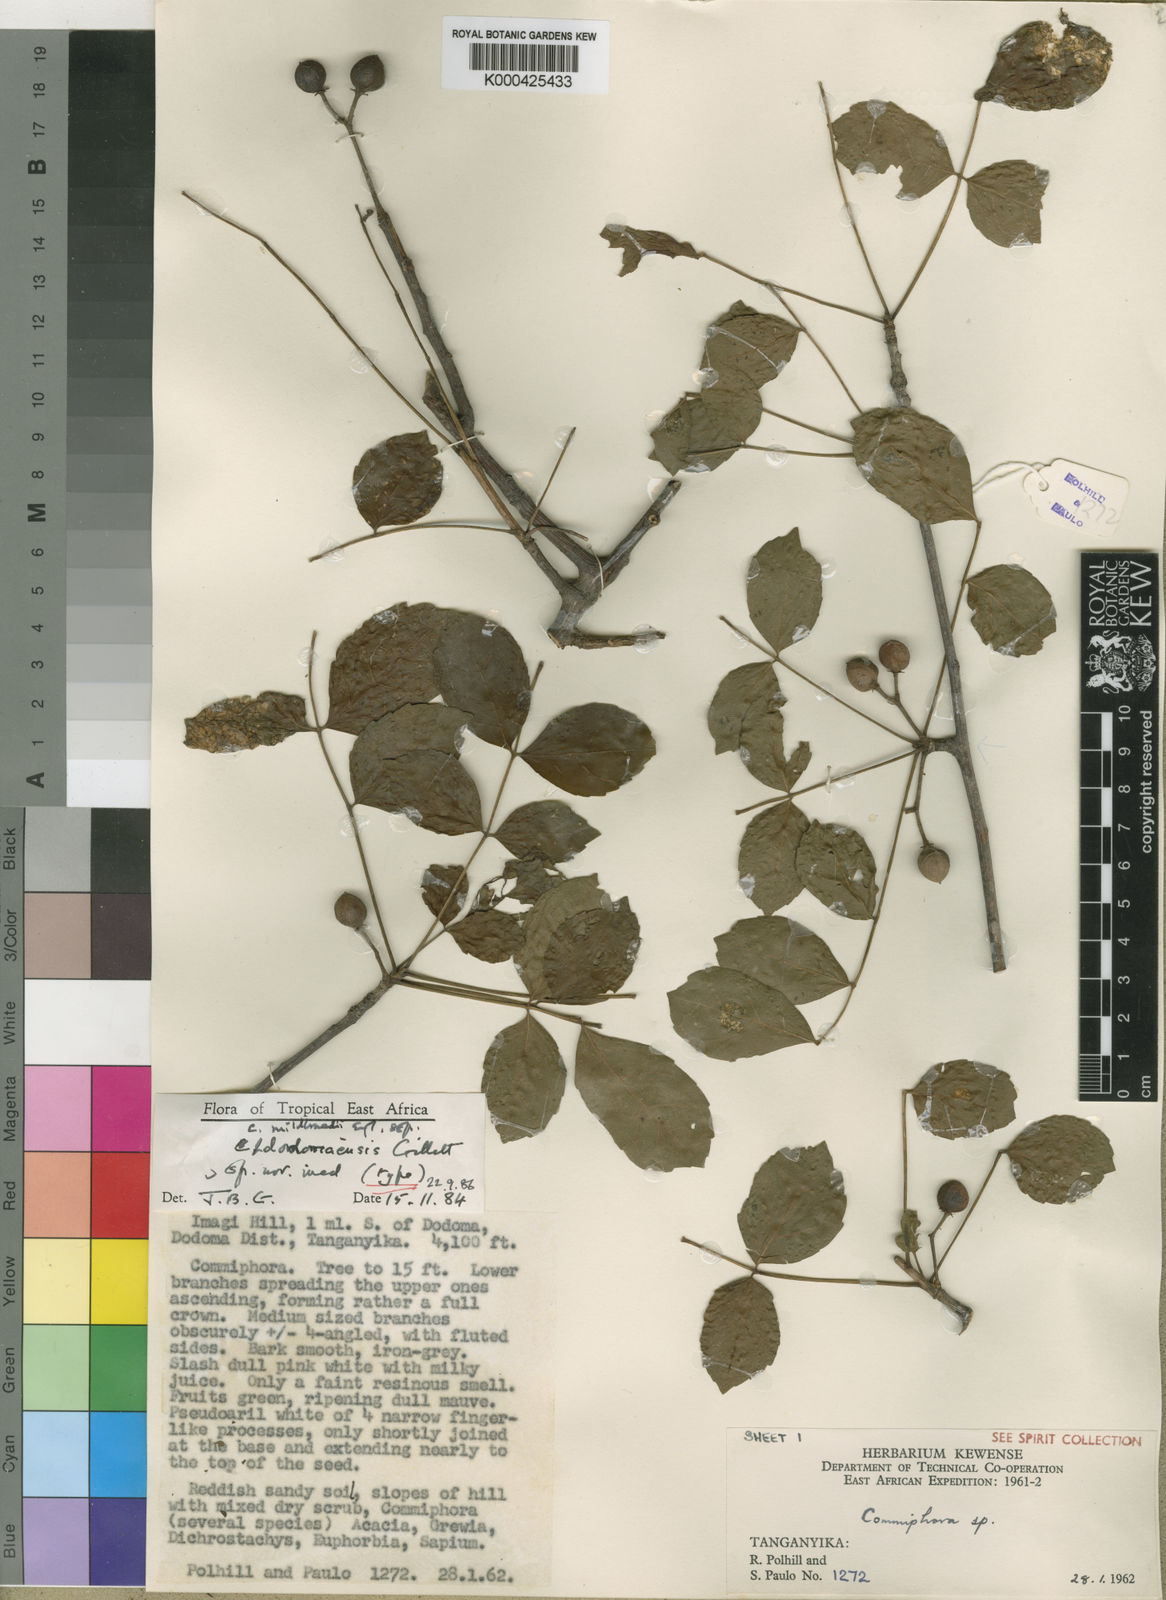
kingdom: Plantae
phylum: Tracheophyta
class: Magnoliopsida
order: Sapindales
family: Burseraceae
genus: Commiphora
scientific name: Commiphora mildbraedii
